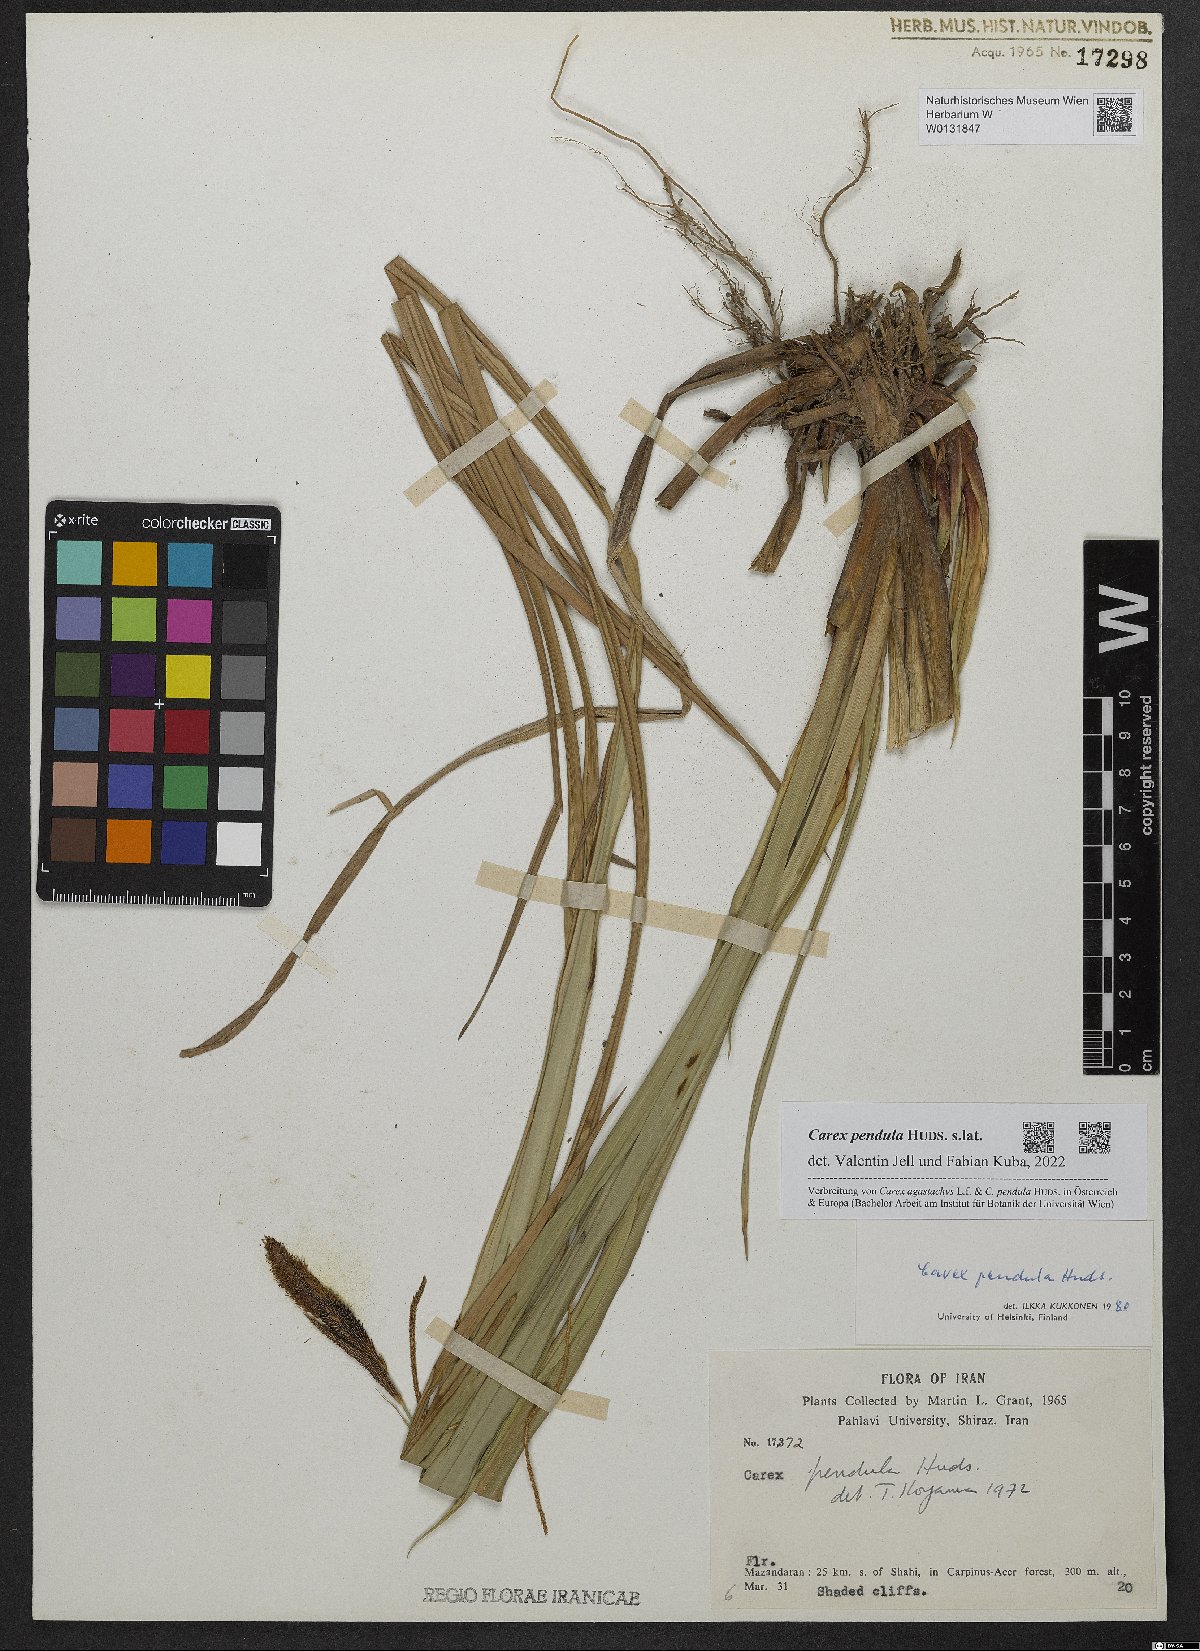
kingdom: Plantae
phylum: Tracheophyta
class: Liliopsida
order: Poales
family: Cyperaceae
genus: Carex
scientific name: Carex pendula
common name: Pendulous sedge
